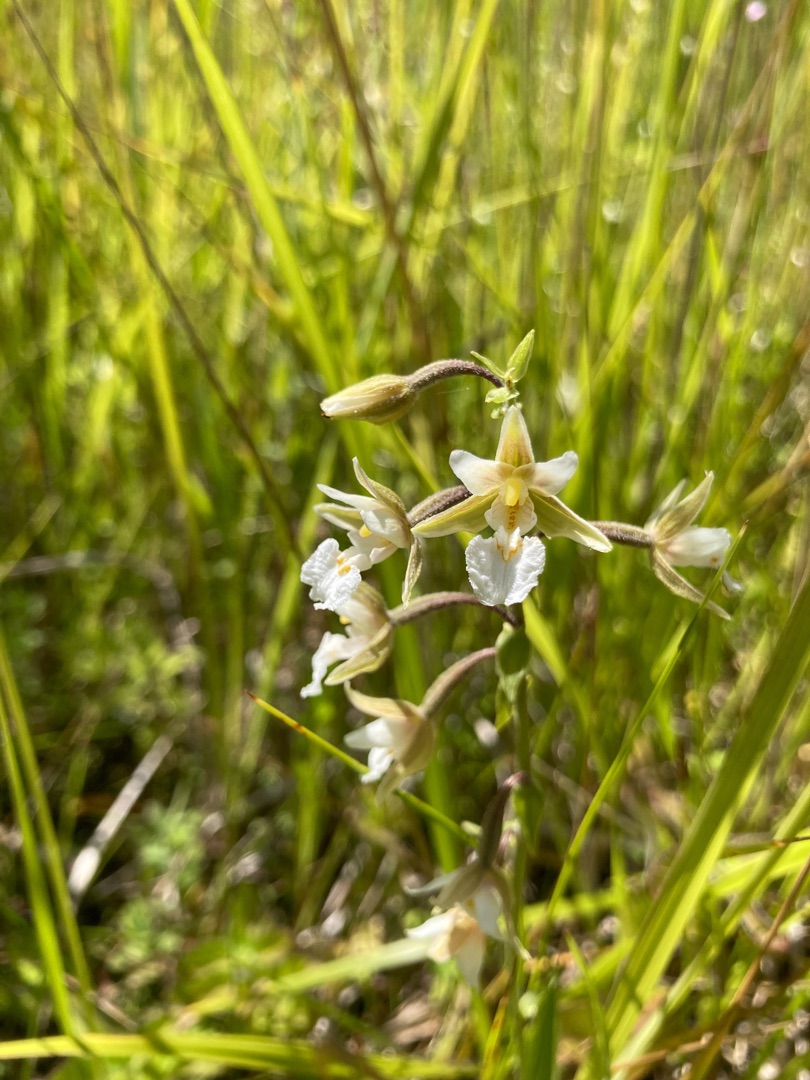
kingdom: Plantae
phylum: Tracheophyta
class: Liliopsida
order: Asparagales
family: Orchidaceae
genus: Epipactis
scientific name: Epipactis palustris
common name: Sump-hullæbe
